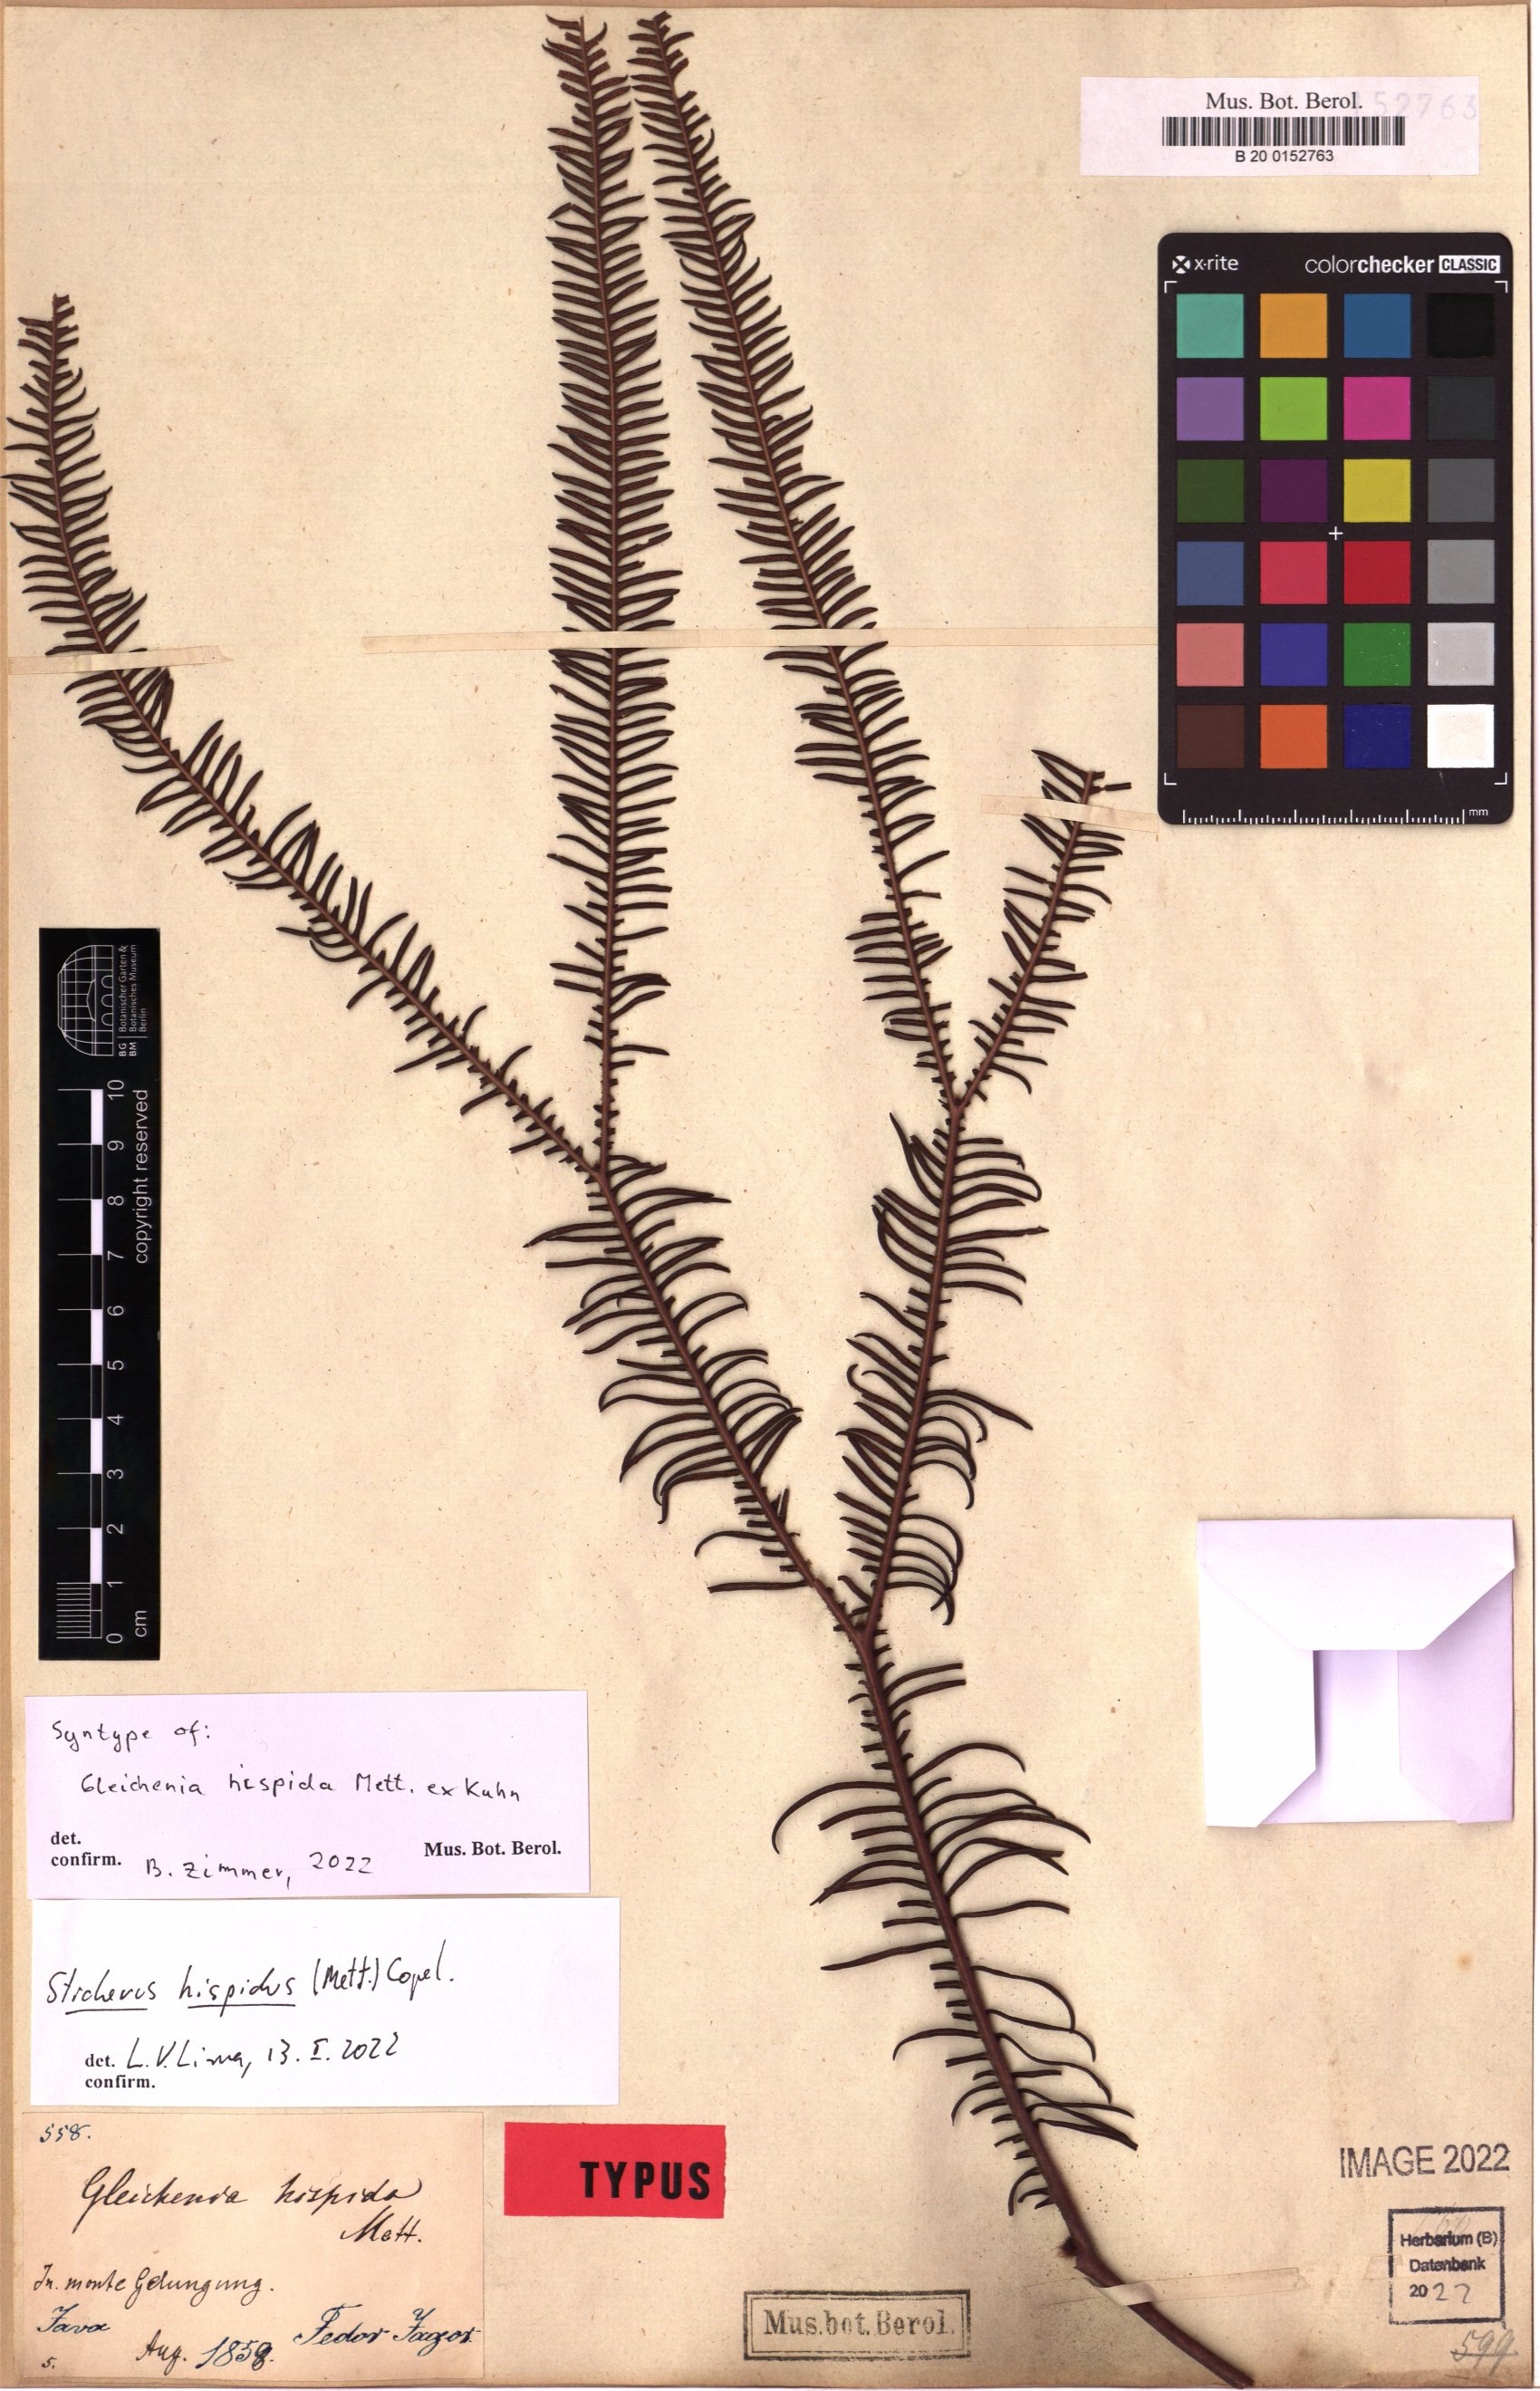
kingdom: Plantae
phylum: Tracheophyta
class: Polypodiopsida
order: Gleicheniales
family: Gleicheniaceae
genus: Sticherus
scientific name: Sticherus hispidus
